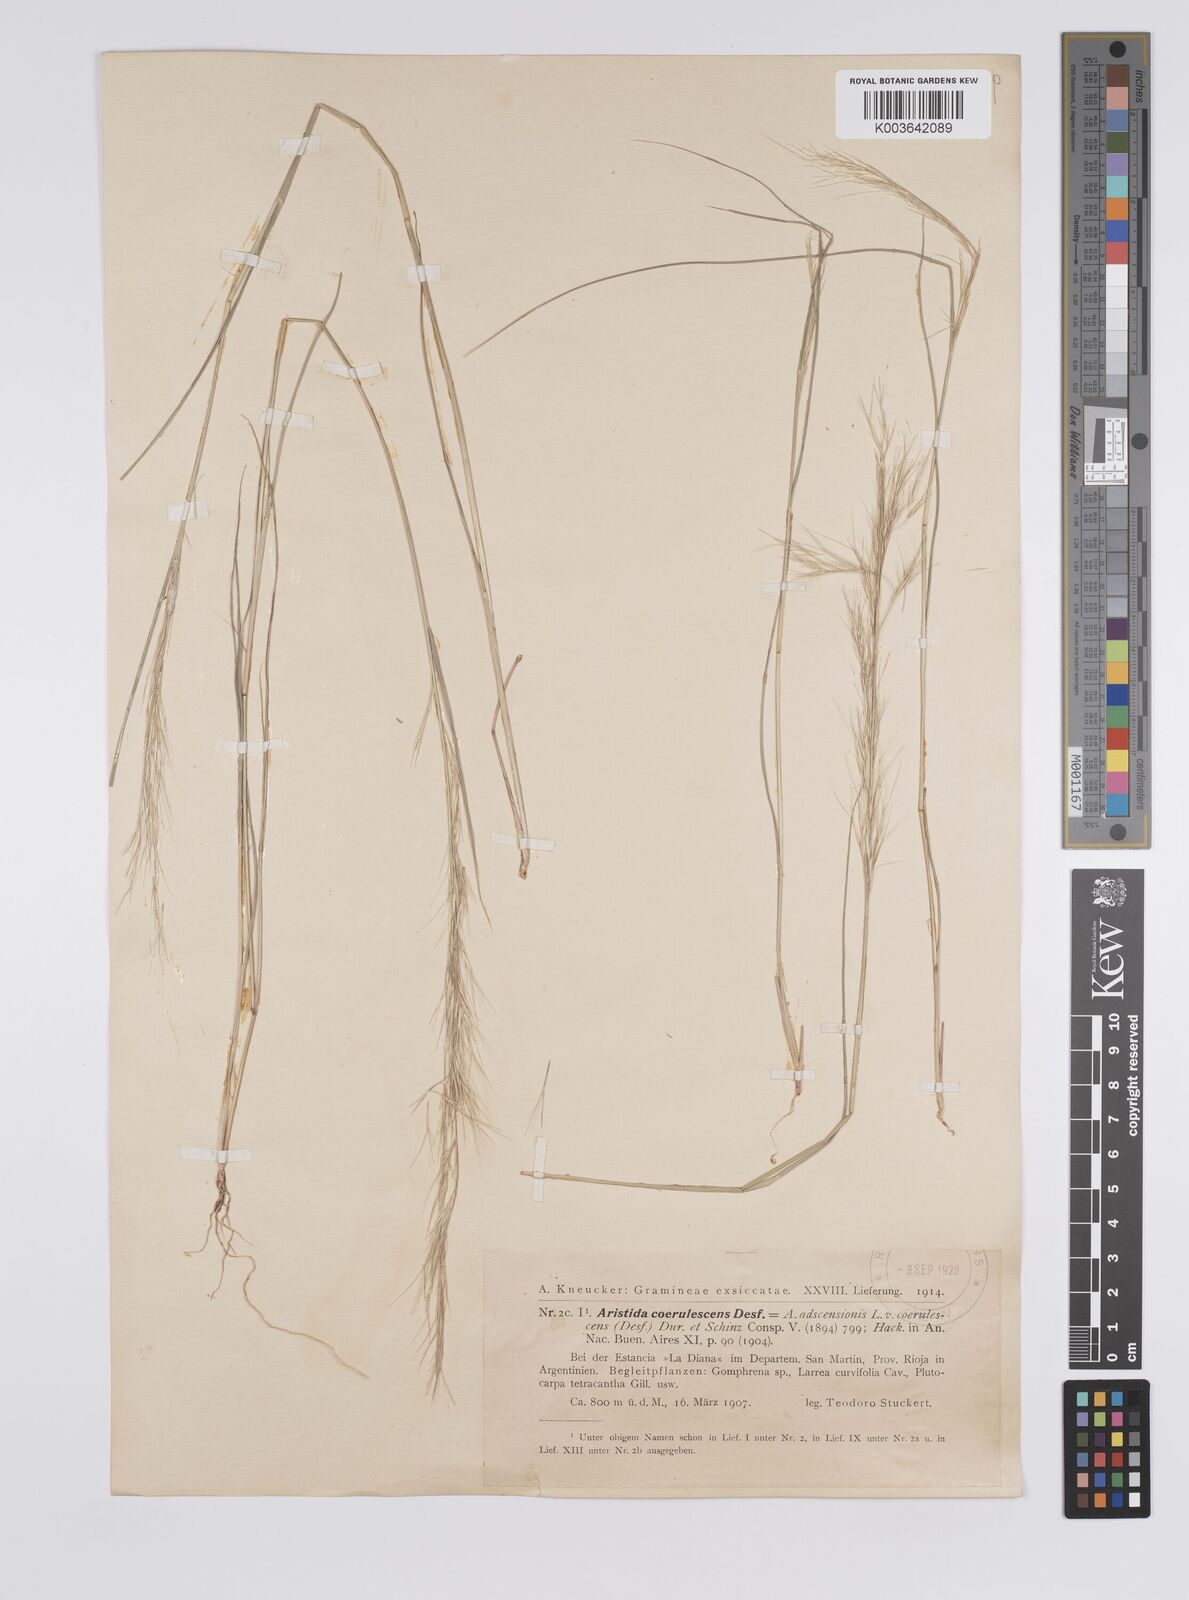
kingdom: Plantae
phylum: Tracheophyta
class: Liliopsida
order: Poales
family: Poaceae
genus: Aristida
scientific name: Aristida adscensionis
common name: Sixweeks threeawn
